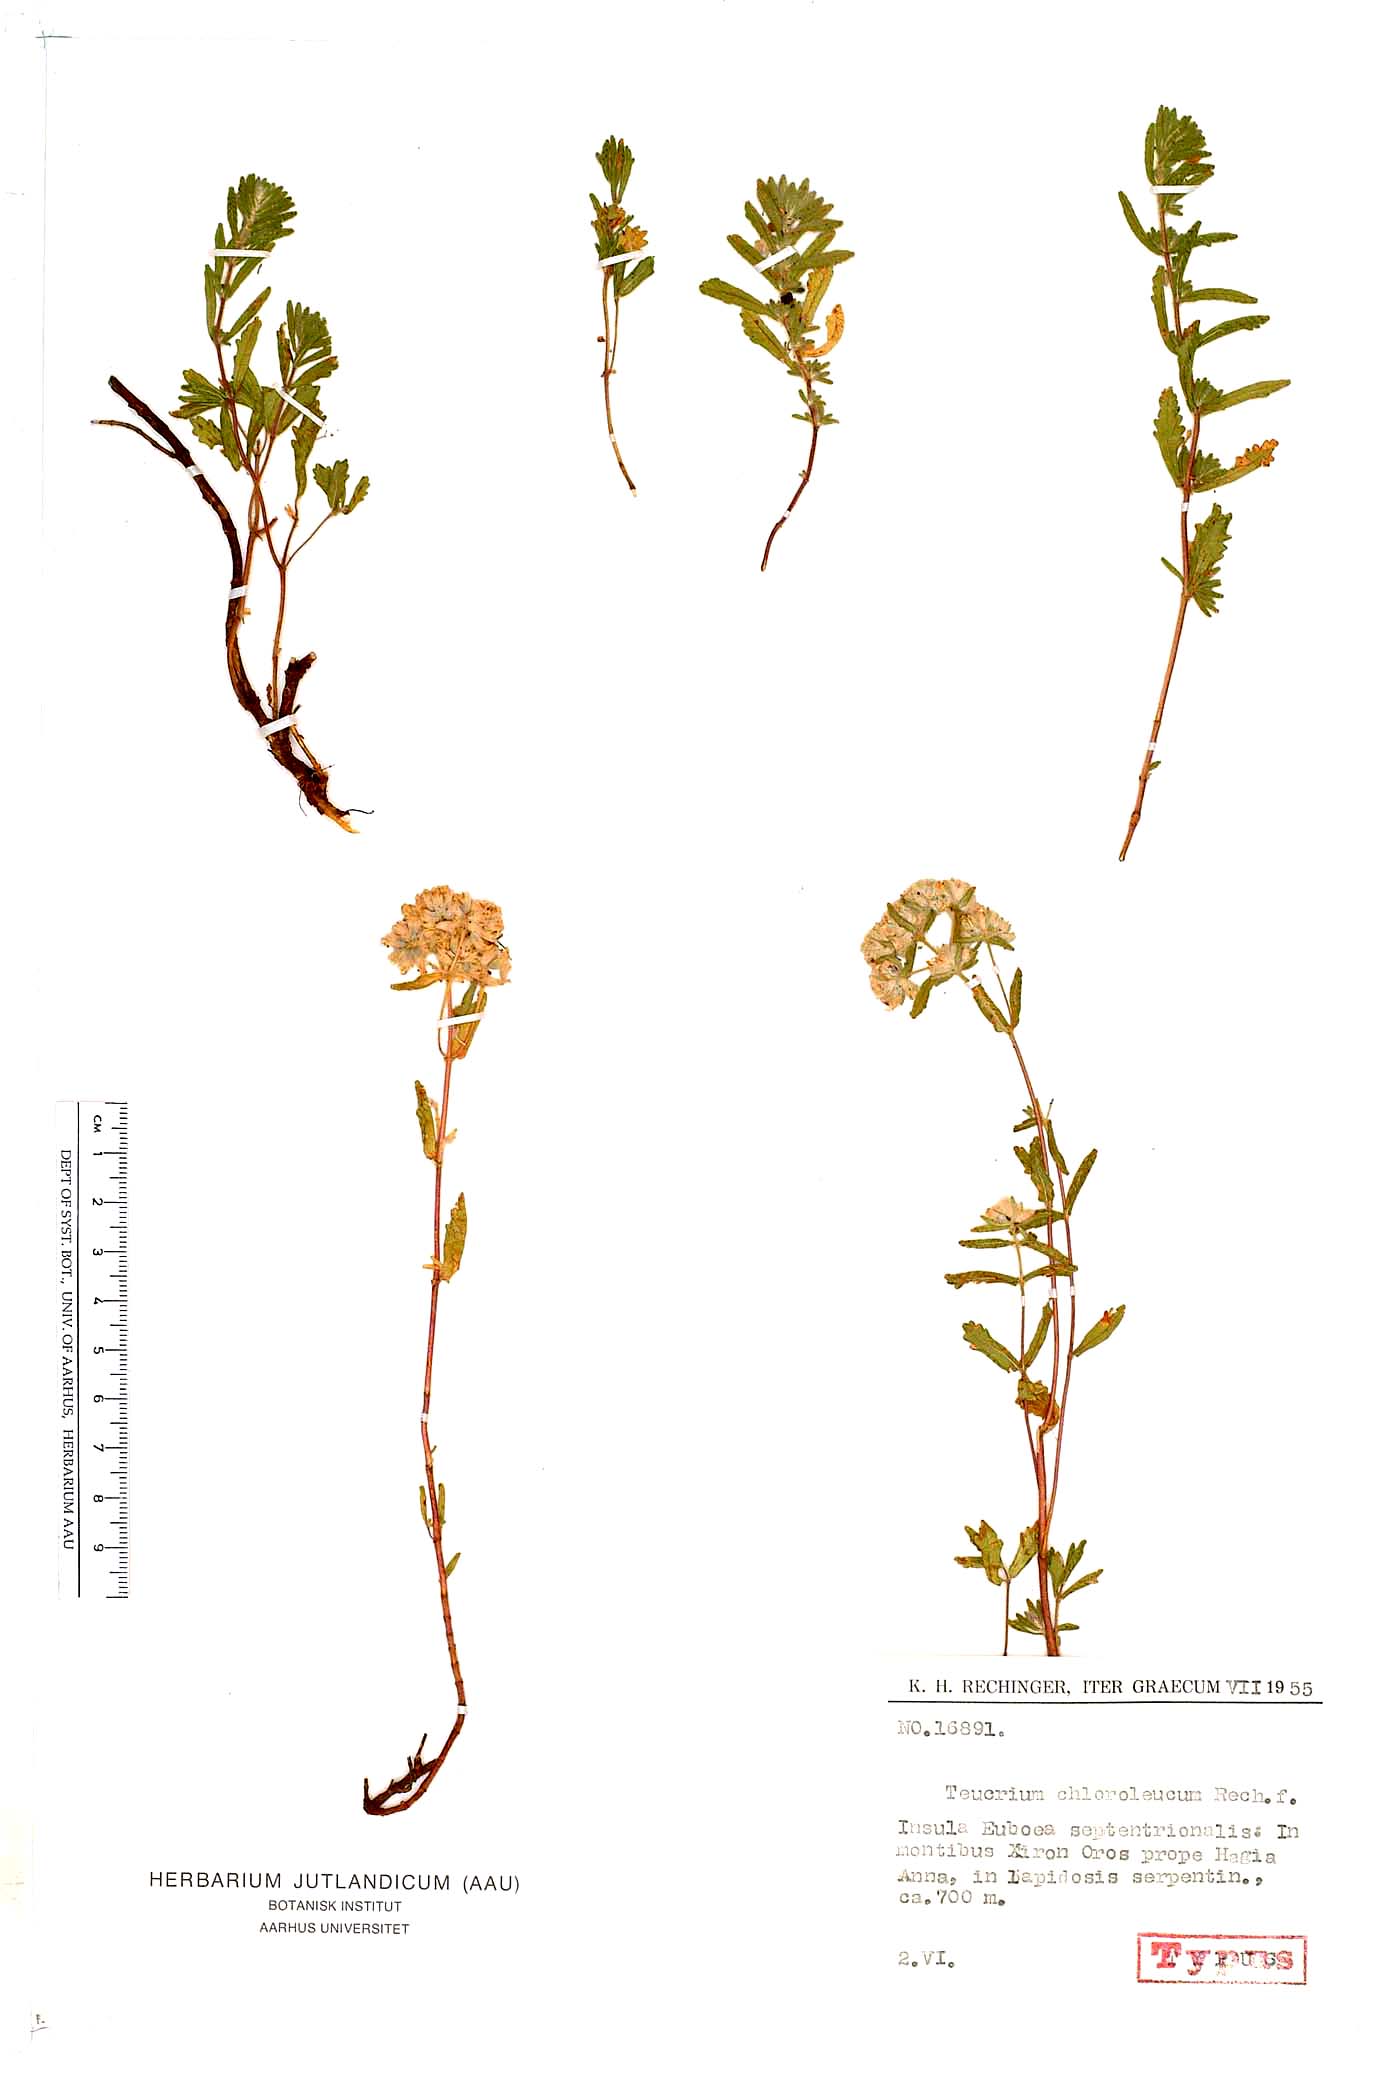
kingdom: Plantae
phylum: Tracheophyta
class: Magnoliopsida
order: Lamiales
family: Lamiaceae
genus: Teucrium
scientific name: Teucrium chloroleucum
